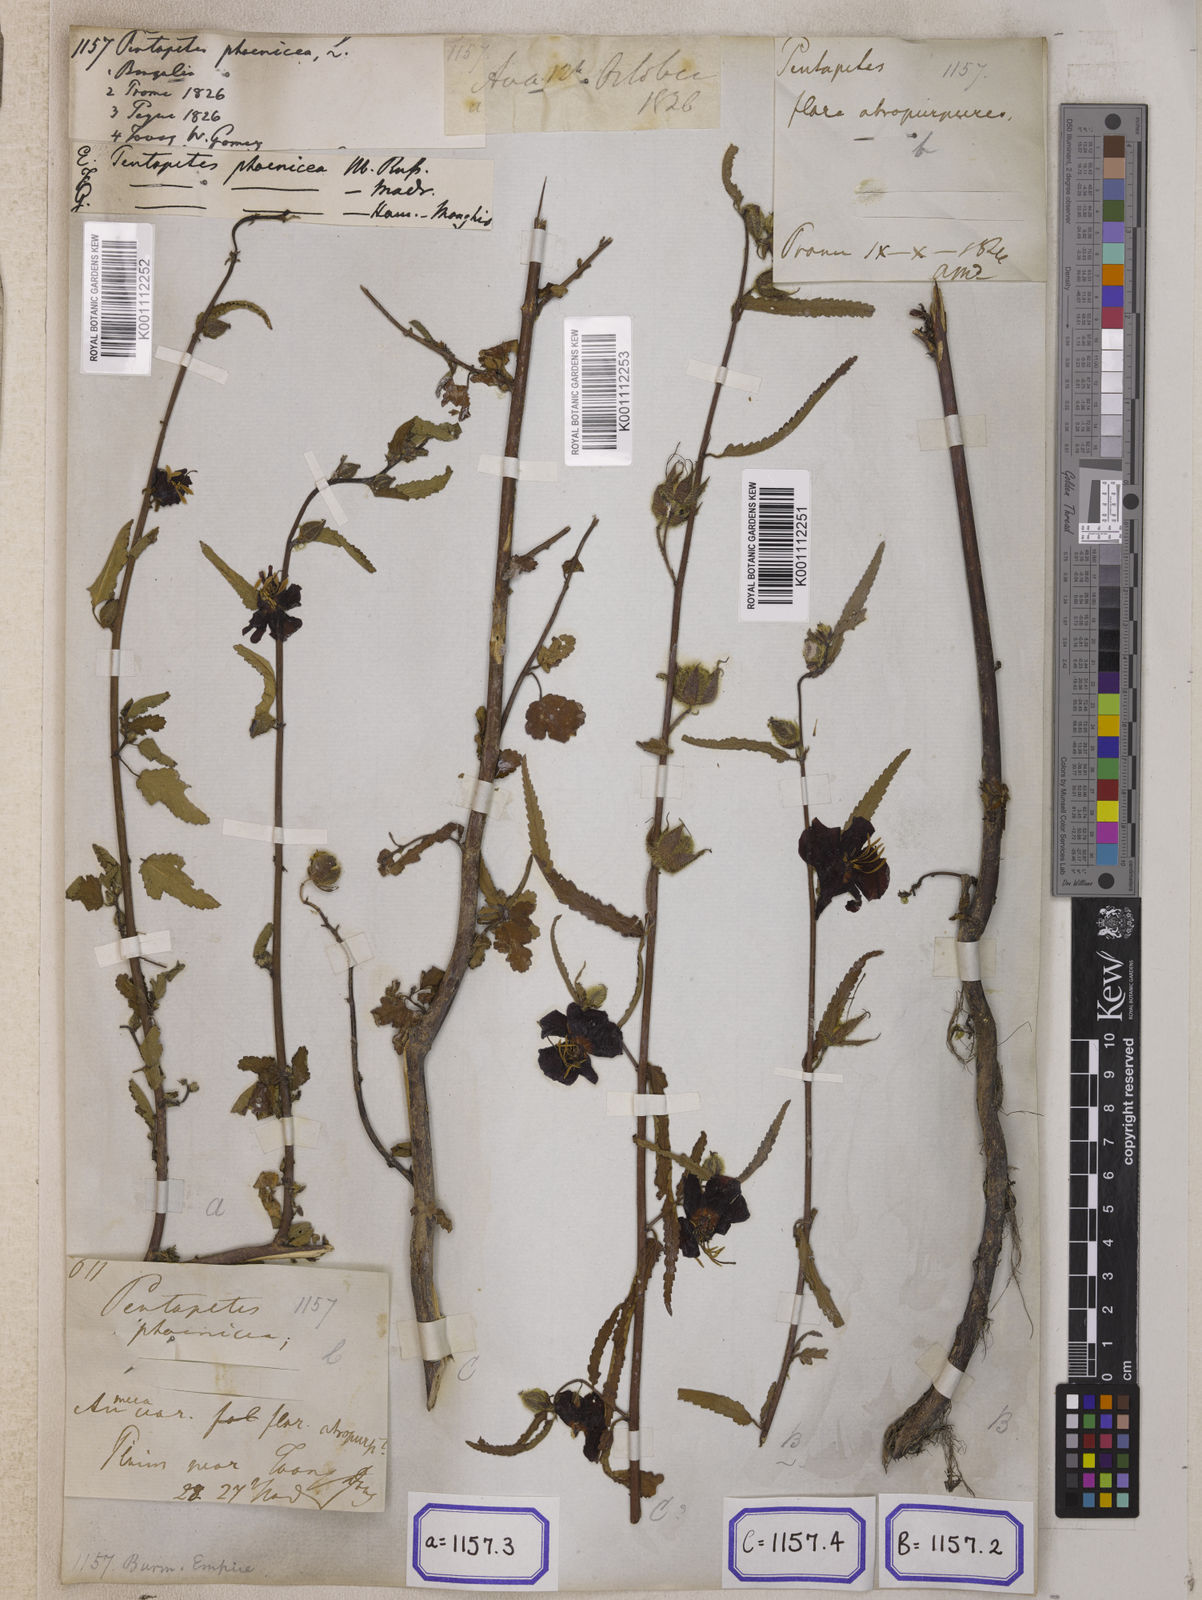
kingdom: Plantae
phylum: Tracheophyta
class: Magnoliopsida
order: Malvales
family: Malvaceae
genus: Pentapetes
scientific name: Pentapetes phoenicea
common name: Copper-cups
